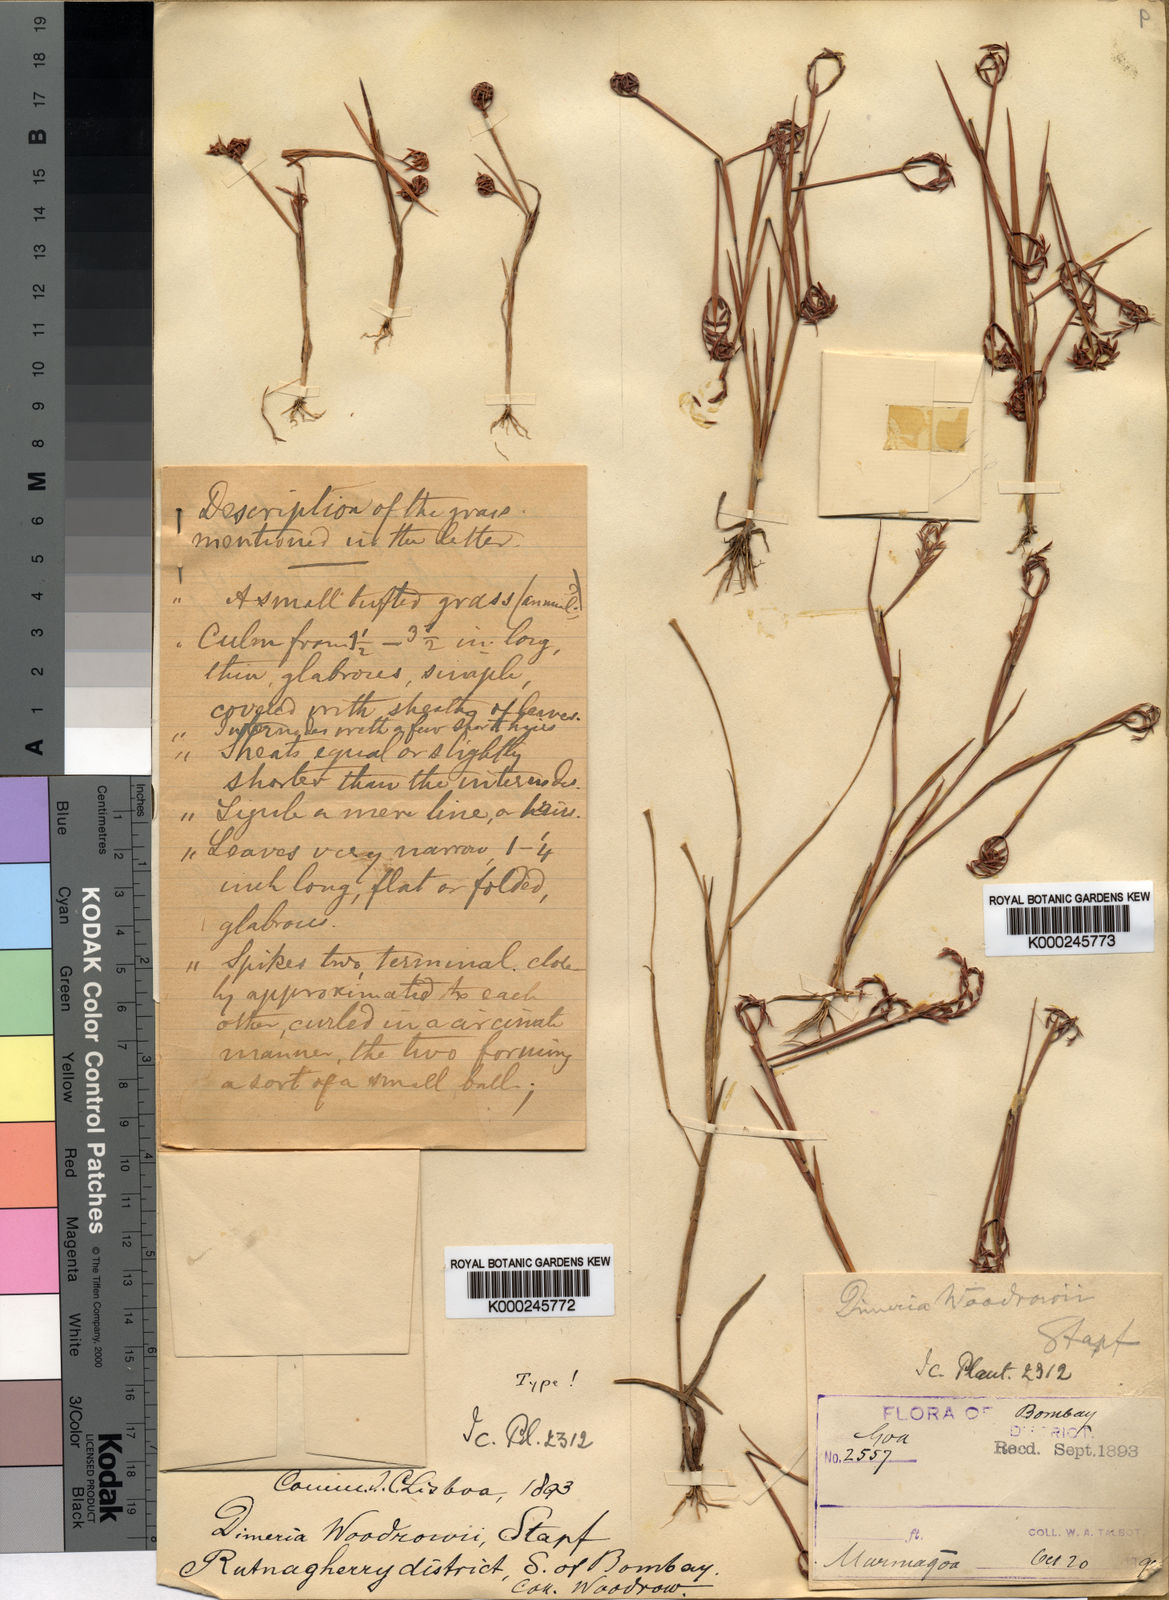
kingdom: Plantae
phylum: Tracheophyta
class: Liliopsida
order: Poales
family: Poaceae
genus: Dimeria
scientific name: Dimeria woodrowii
